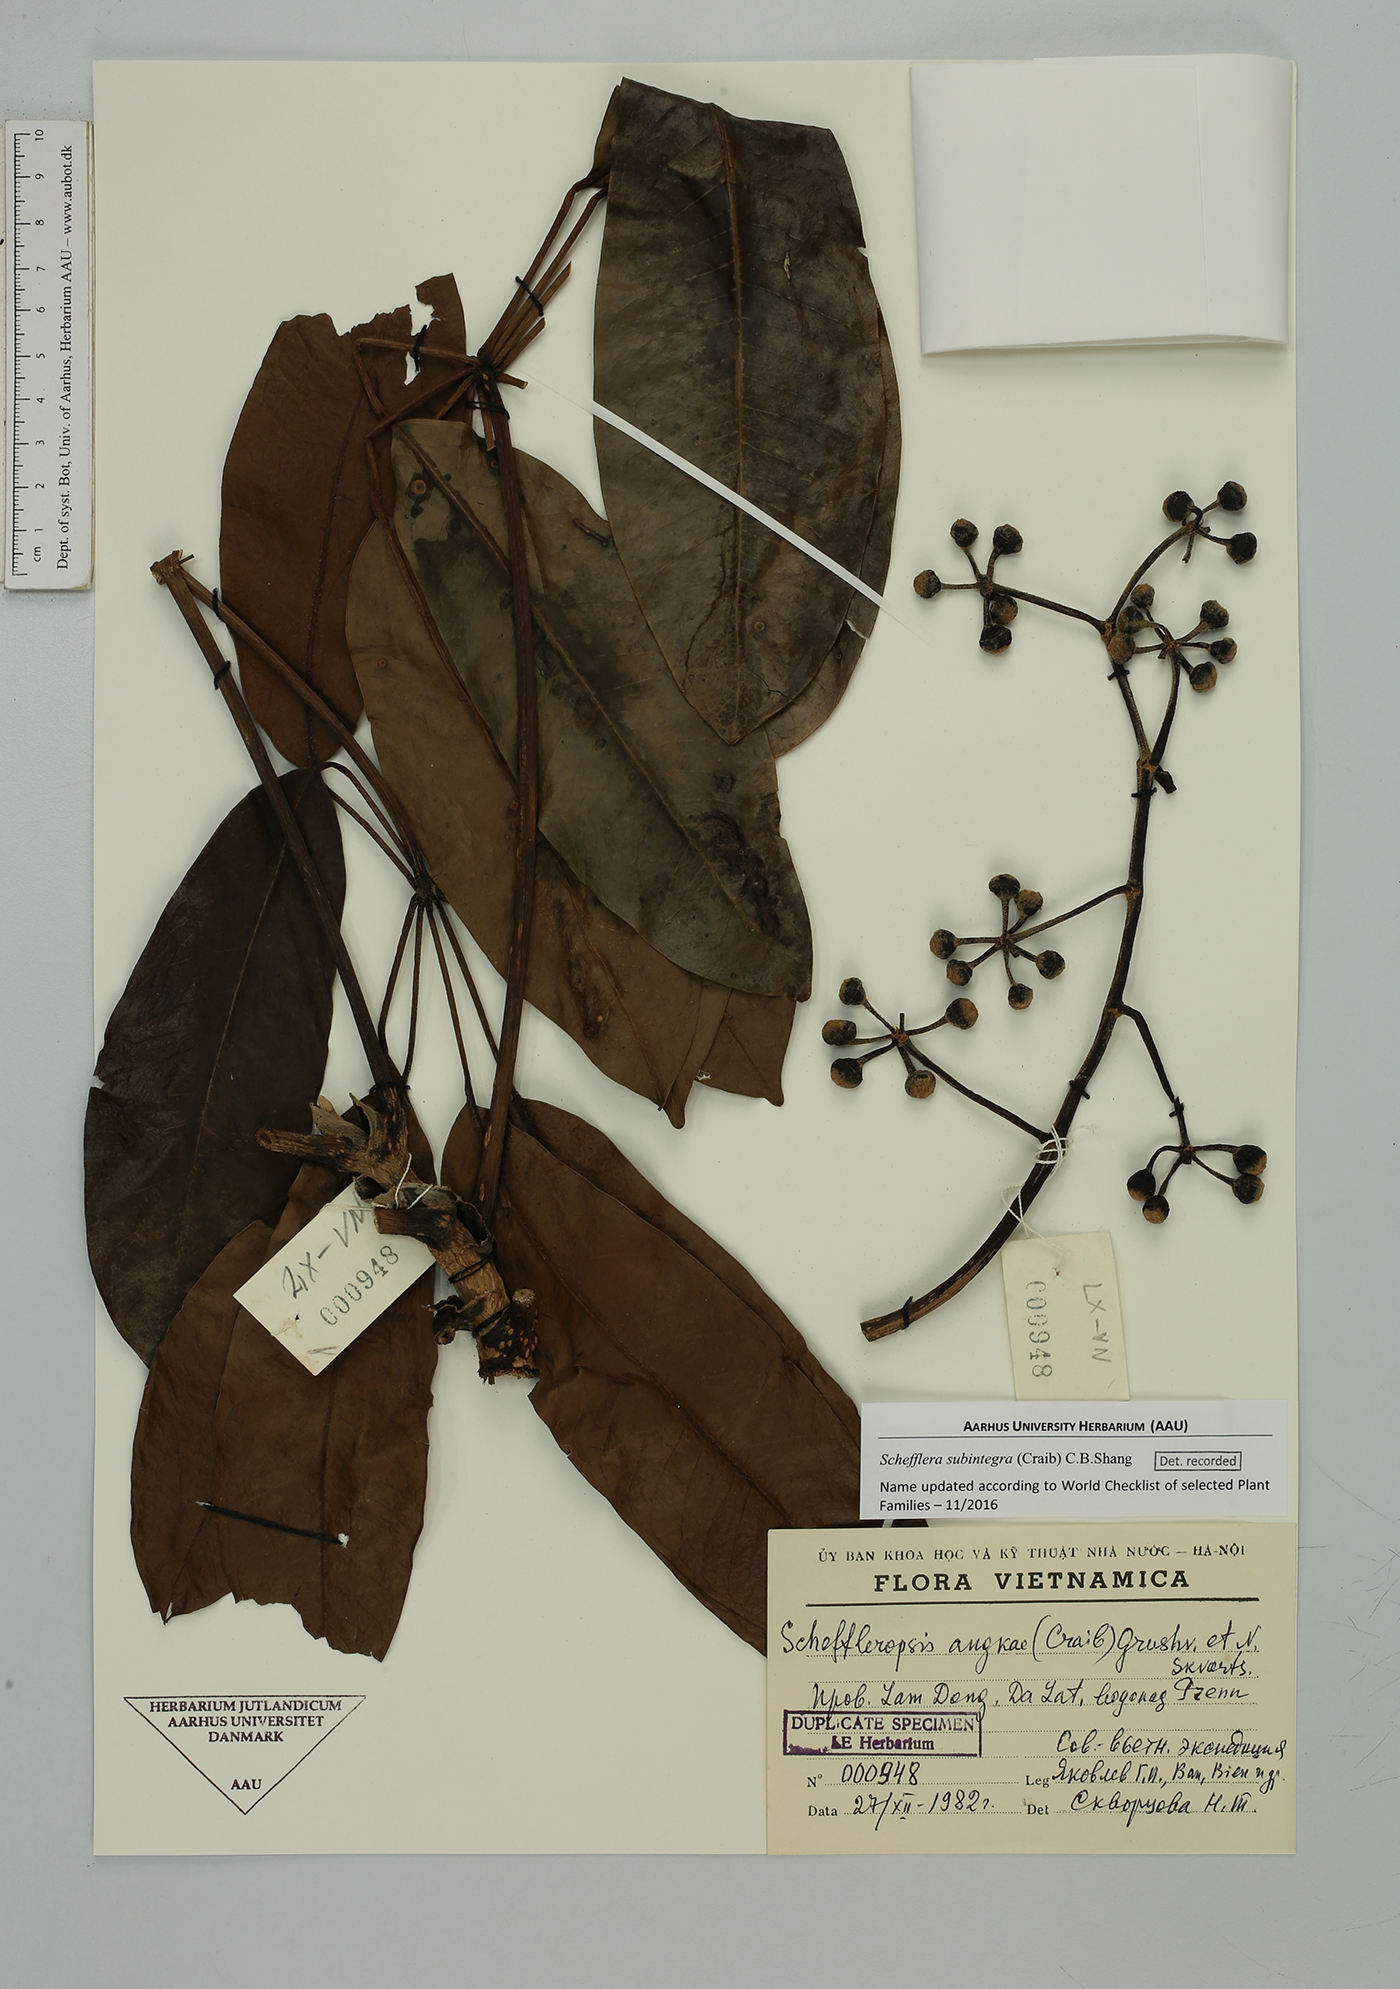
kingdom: Plantae
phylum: Tracheophyta
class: Magnoliopsida
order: Apiales
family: Araliaceae
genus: Heptapleurum
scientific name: Heptapleurum subintegrum
